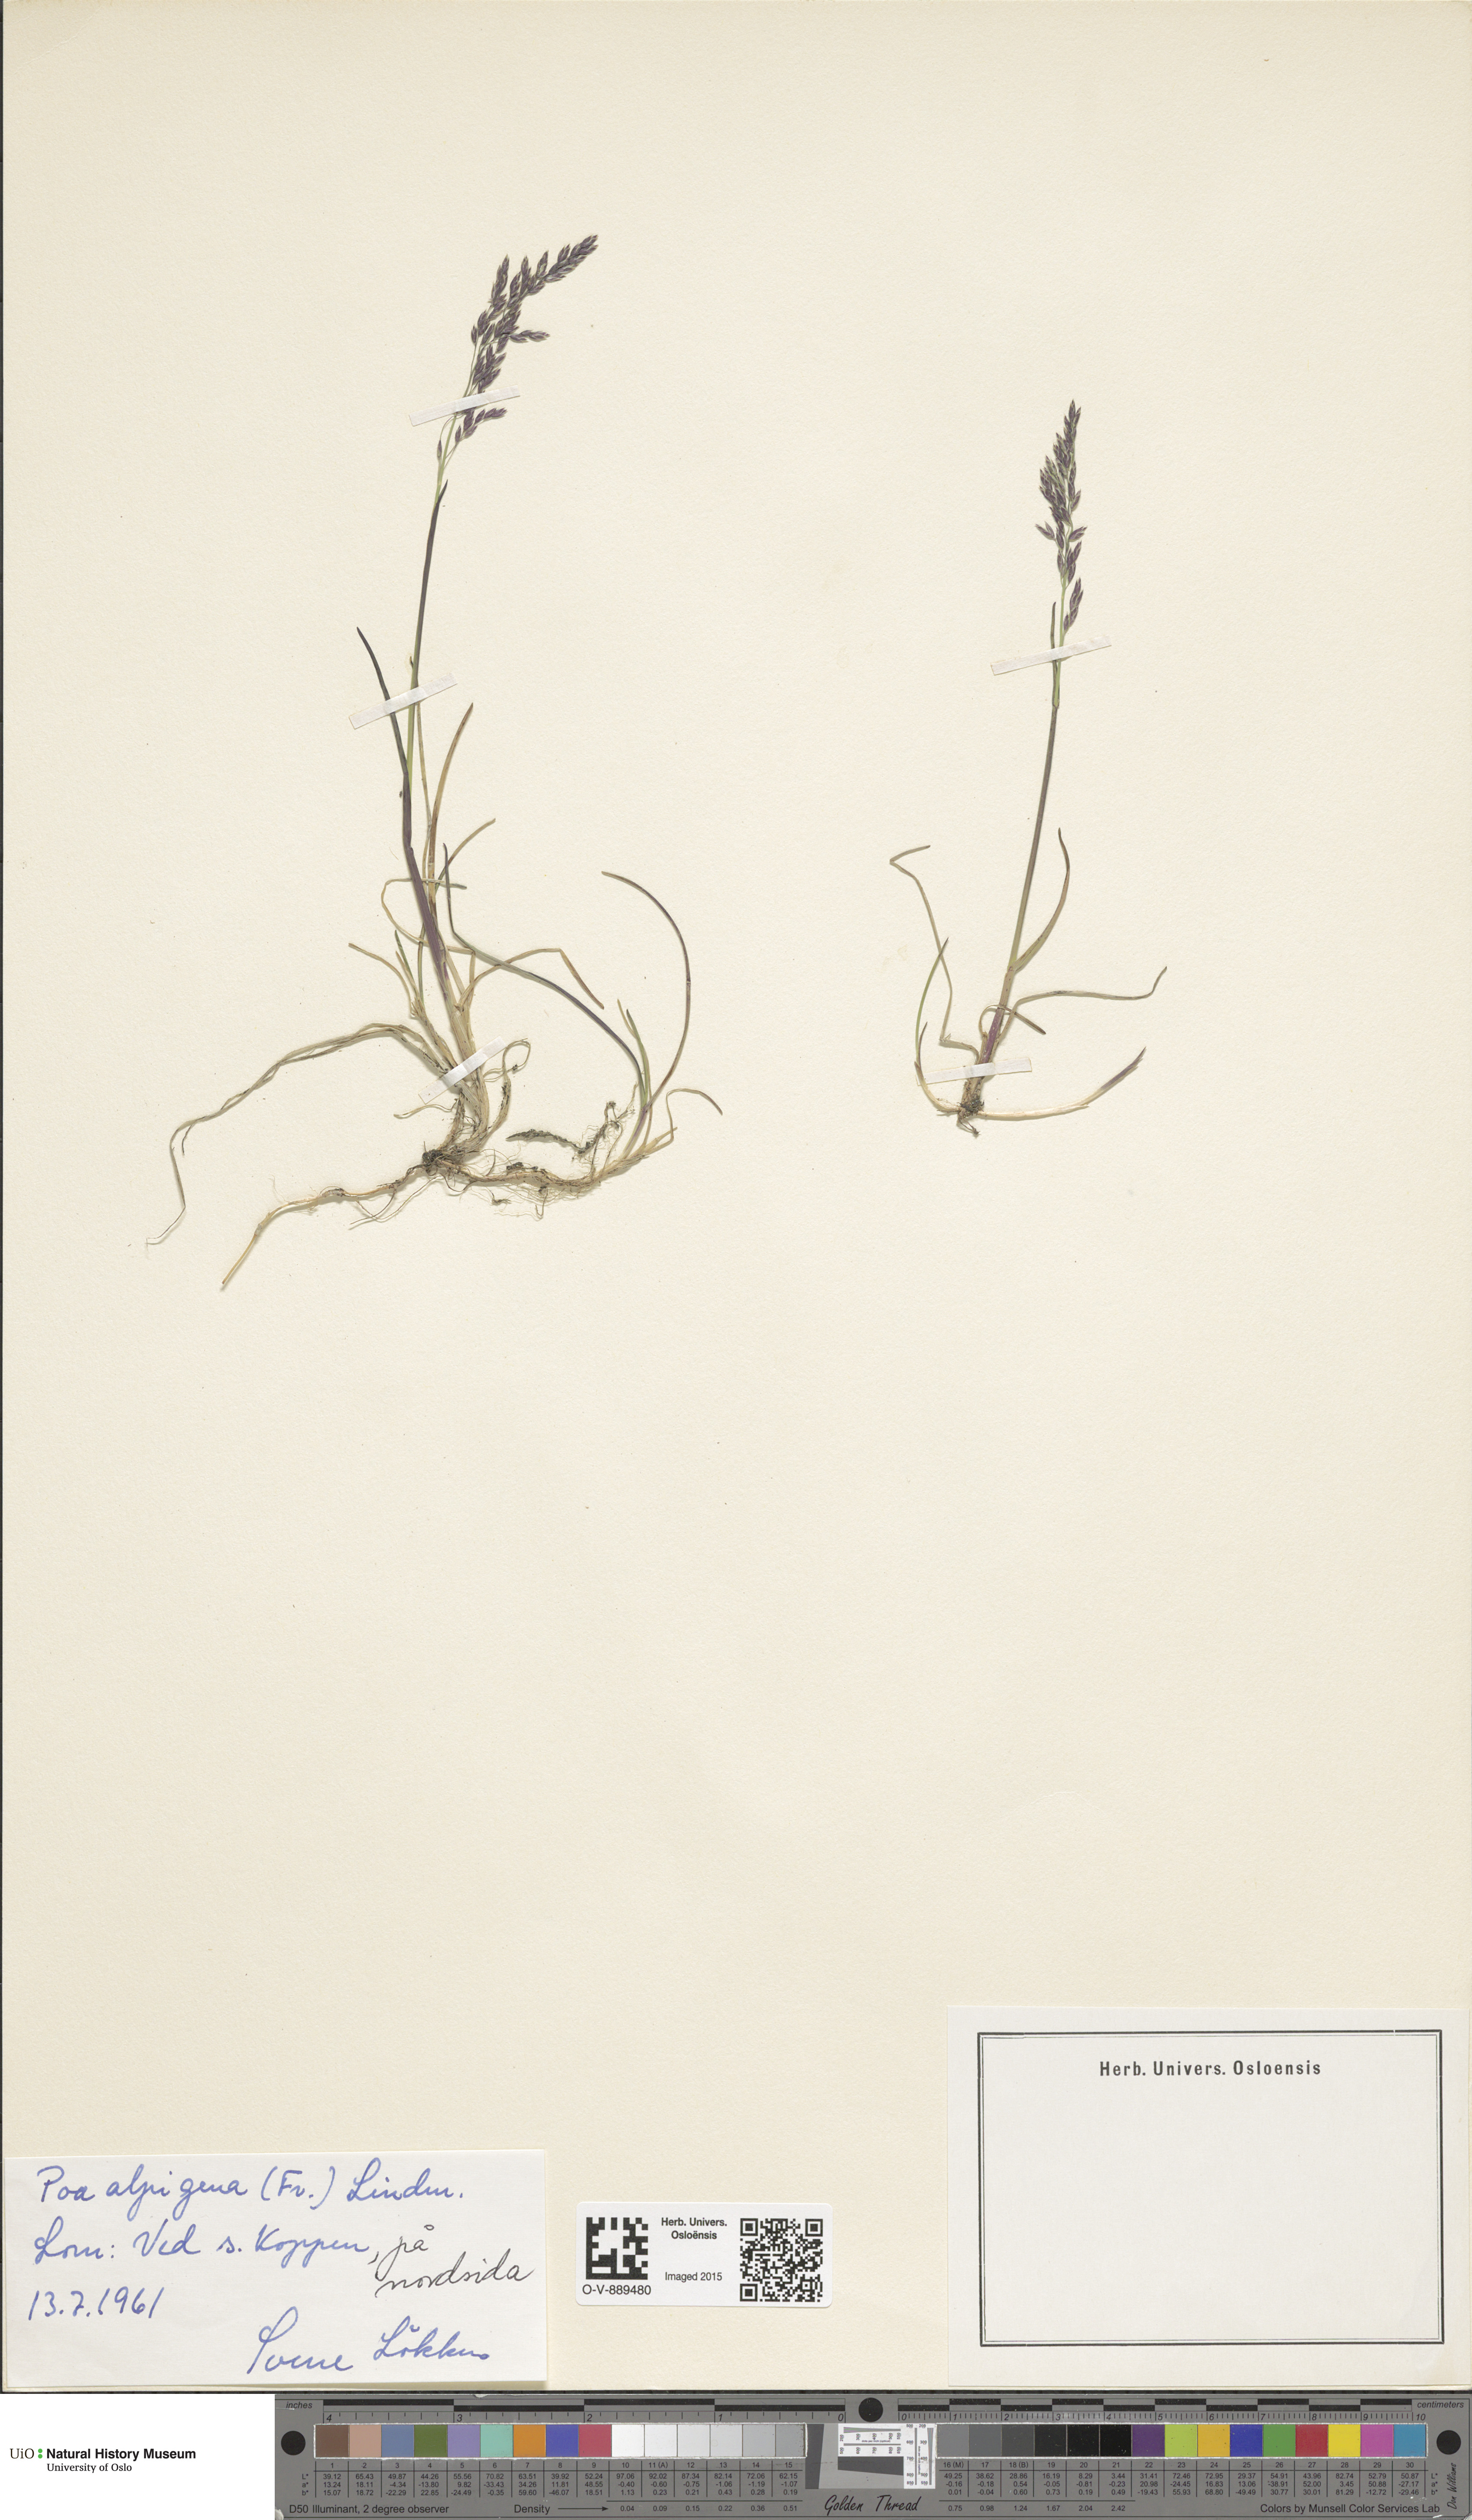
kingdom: Plantae
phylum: Tracheophyta
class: Liliopsida
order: Poales
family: Poaceae
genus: Poa
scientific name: Poa alpigena
